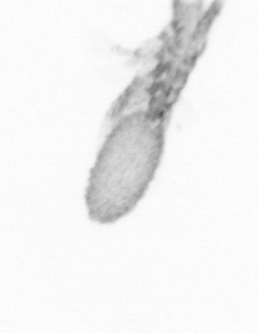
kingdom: Animalia
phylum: Arthropoda
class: Copepoda
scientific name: Copepoda
